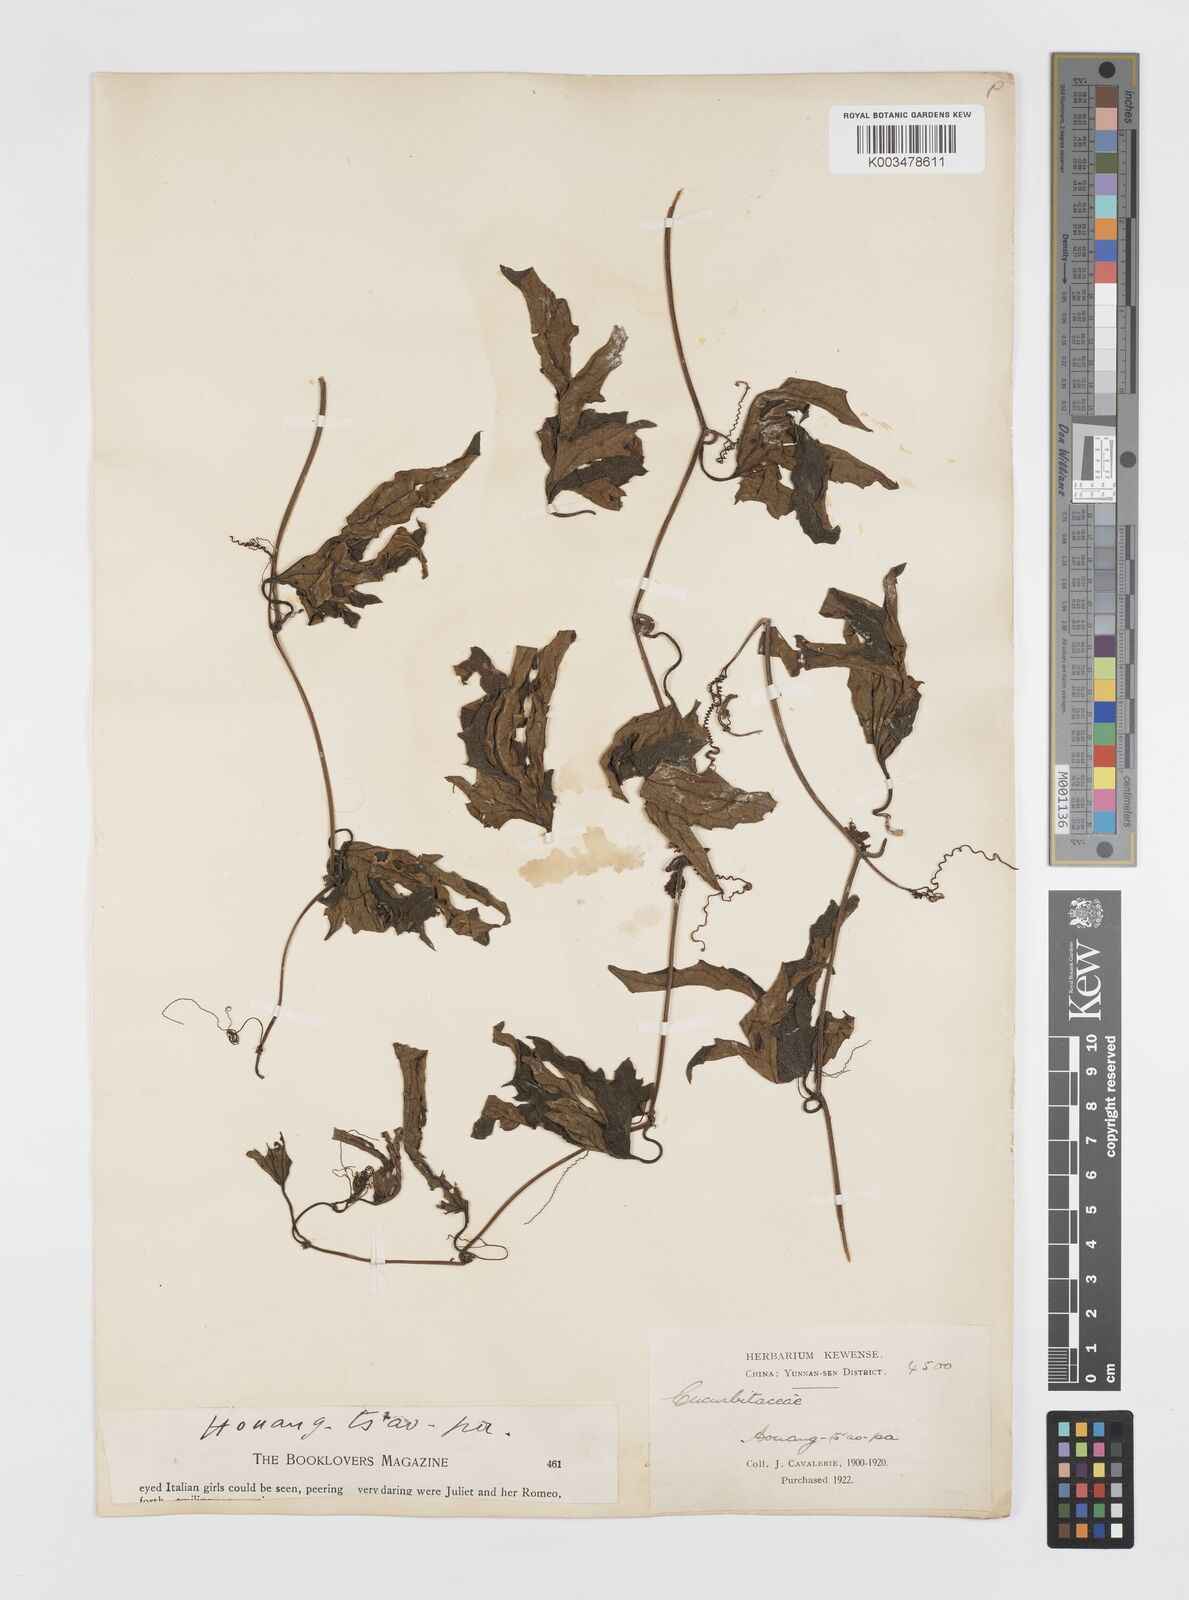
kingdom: Plantae
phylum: Tracheophyta
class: Magnoliopsida
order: Cucurbitales
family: Cucurbitaceae
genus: Trichosanthes
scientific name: Trichosanthes dunniana
